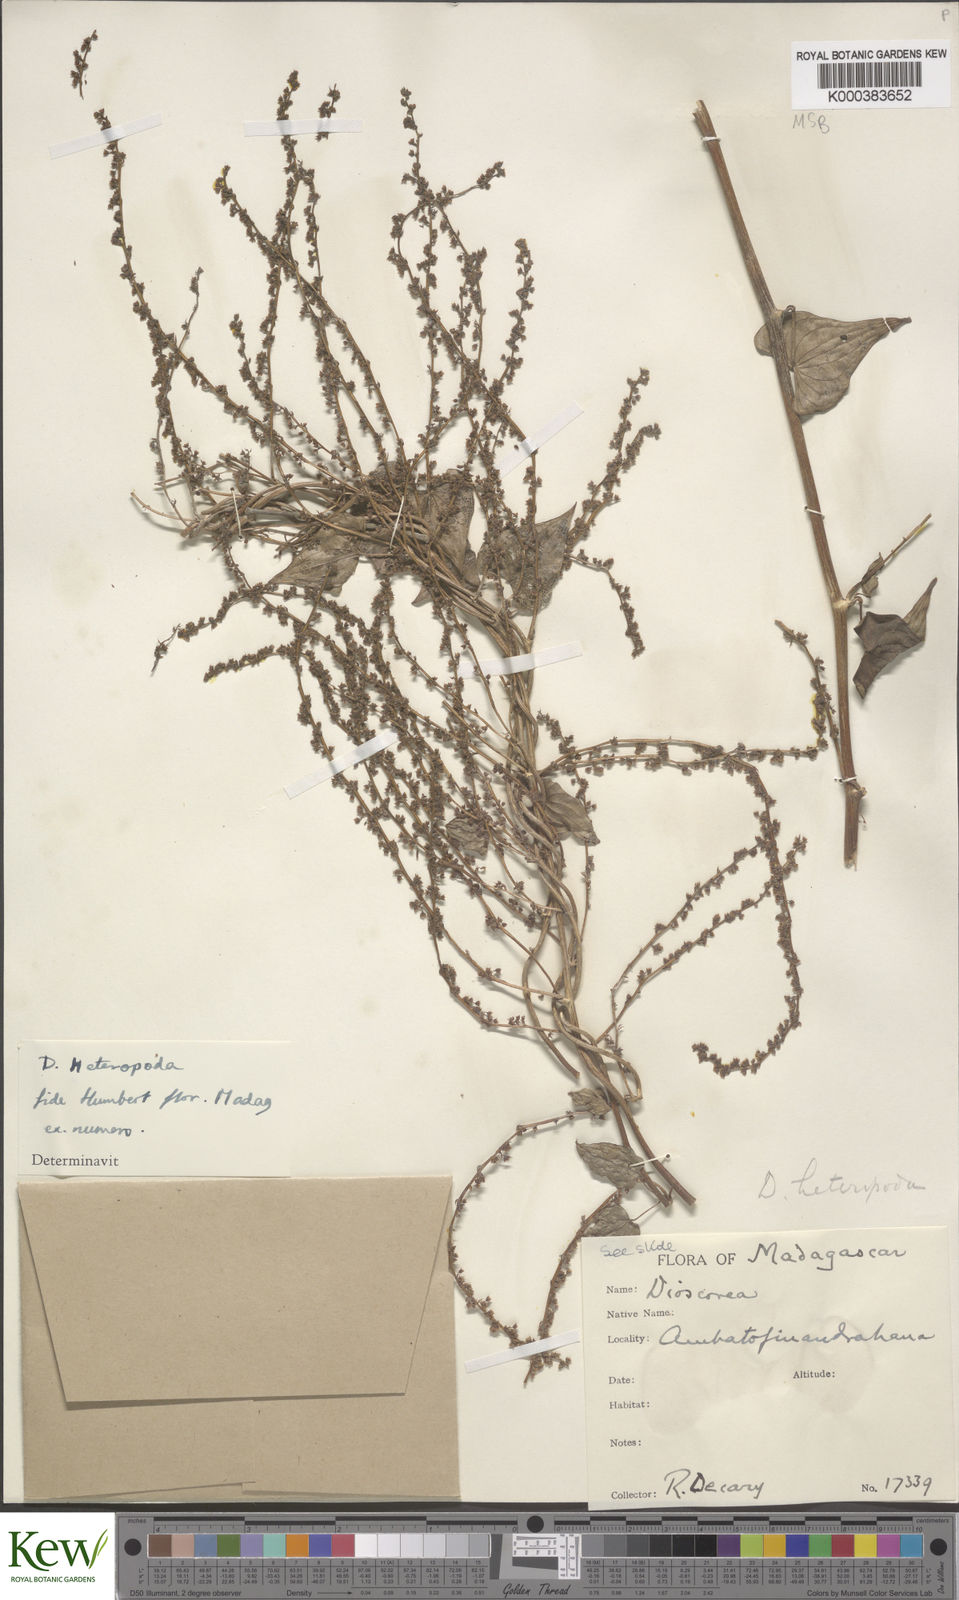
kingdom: Plantae
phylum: Tracheophyta
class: Liliopsida
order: Dioscoreales
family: Dioscoreaceae
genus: Dioscorea
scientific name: Dioscorea heteropoda
